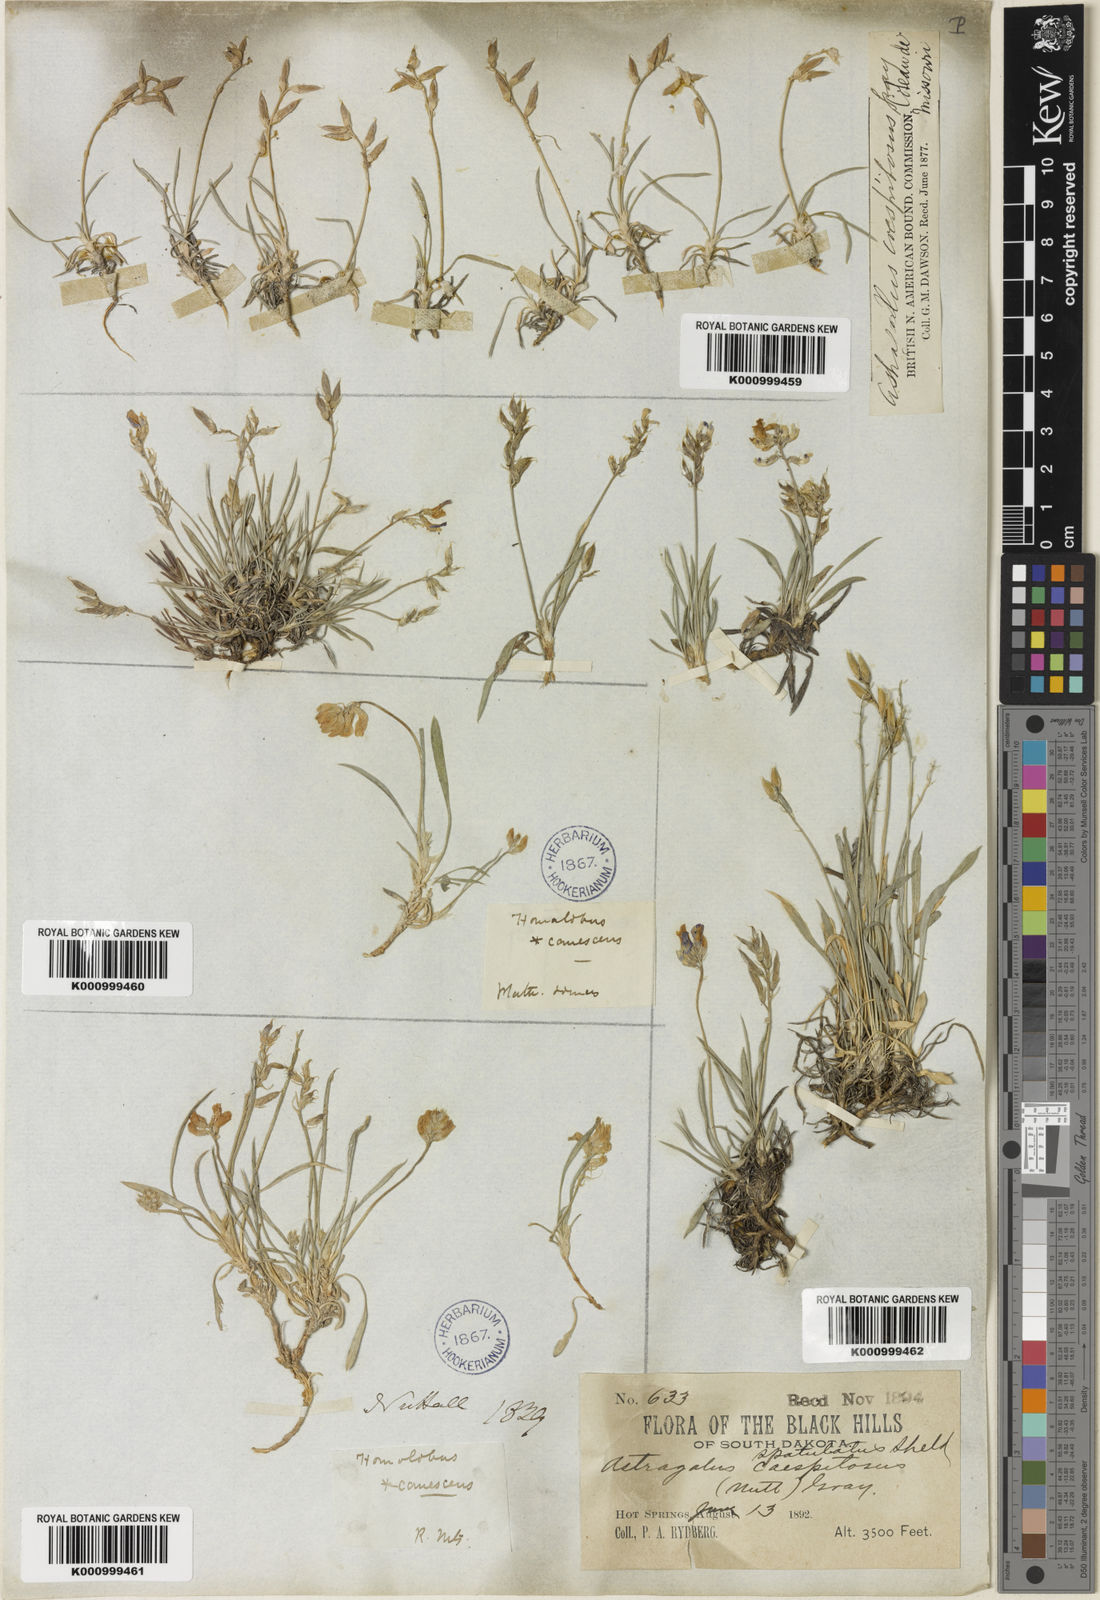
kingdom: Plantae
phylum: Tracheophyta
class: Magnoliopsida
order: Fabales
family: Fabaceae
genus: Oxytropis
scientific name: Oxytropis caespitosa
